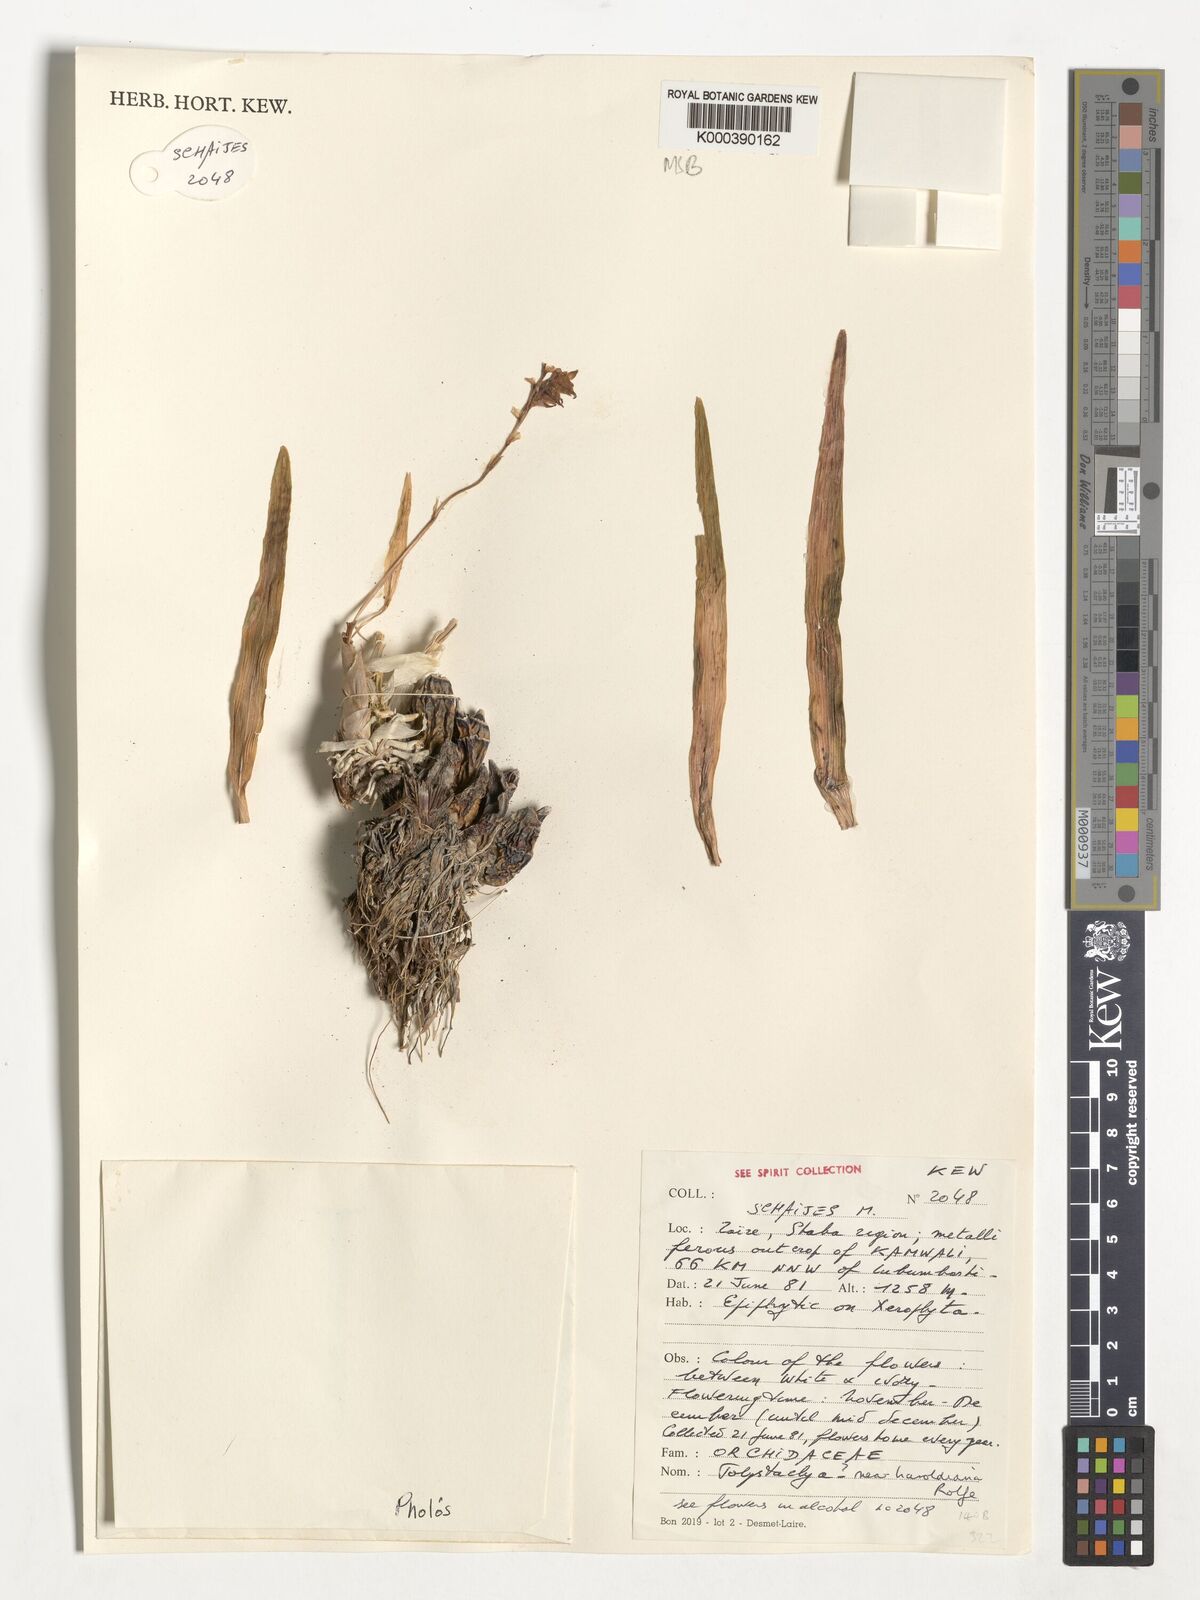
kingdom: Plantae
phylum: Tracheophyta
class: Liliopsida
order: Asparagales
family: Orchidaceae
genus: Polystachya
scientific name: Polystachya haroldiana
